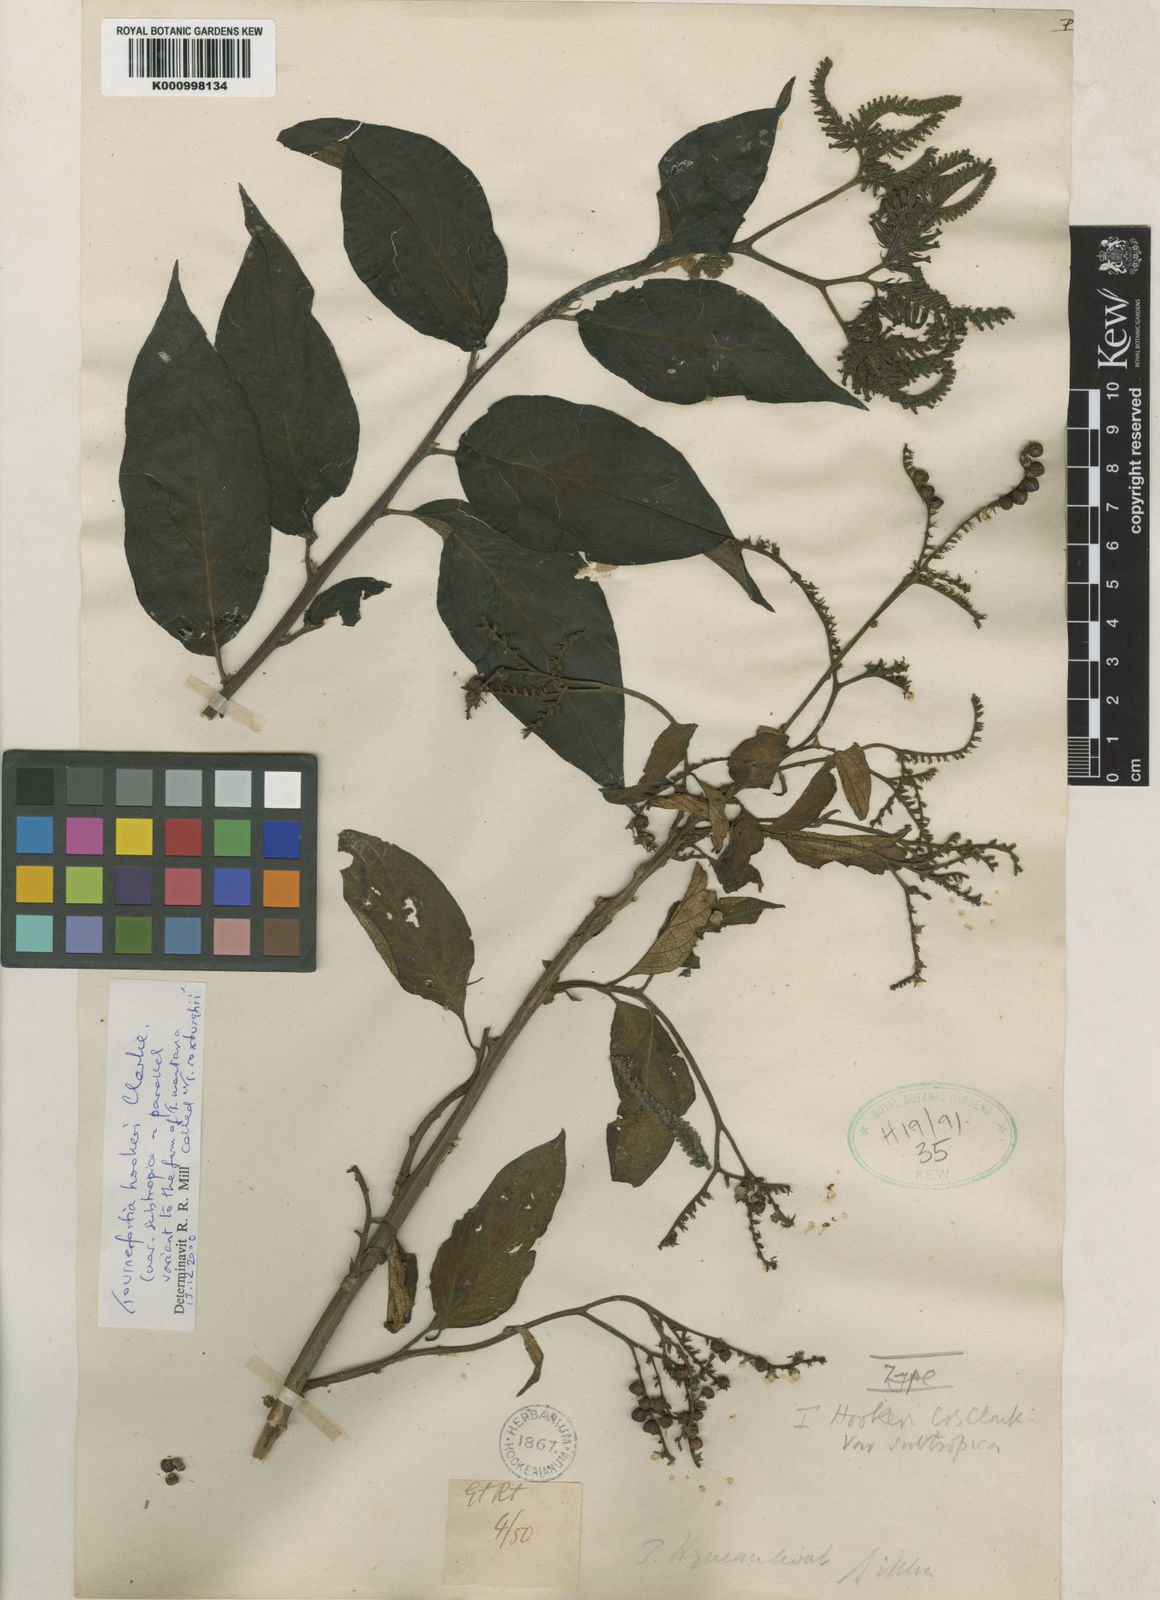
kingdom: Plantae
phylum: Tracheophyta
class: Magnoliopsida
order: Boraginales
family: Heliotropiaceae
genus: Tournefortia
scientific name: Tournefortia hookeri
